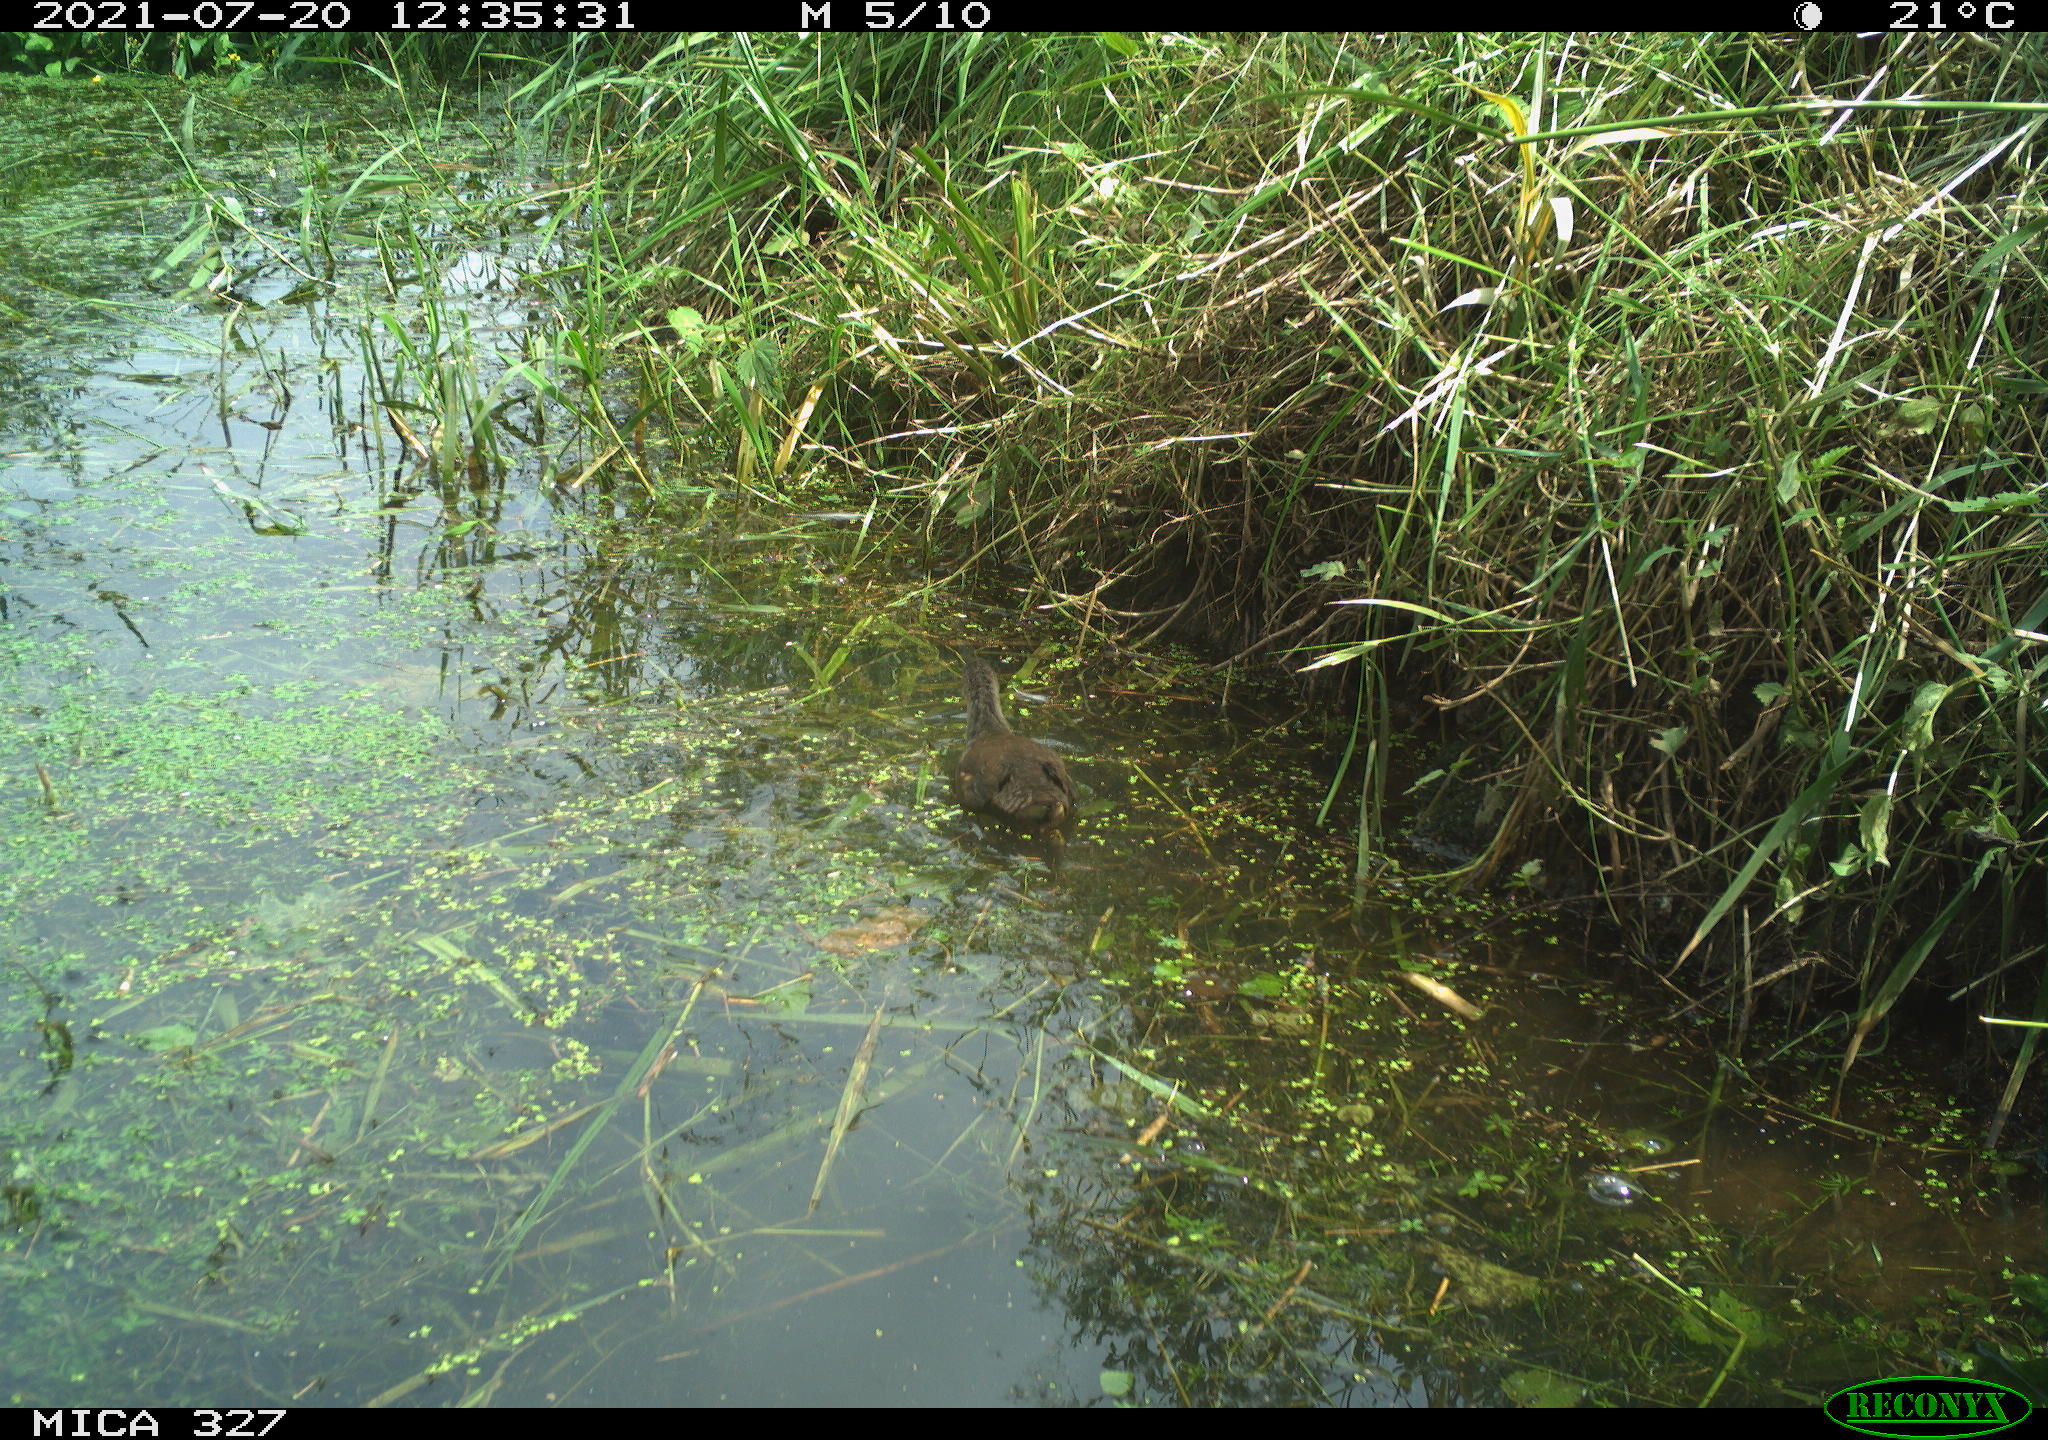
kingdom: Animalia
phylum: Chordata
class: Aves
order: Gruiformes
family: Rallidae
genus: Gallinula
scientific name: Gallinula chloropus
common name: Common moorhen
